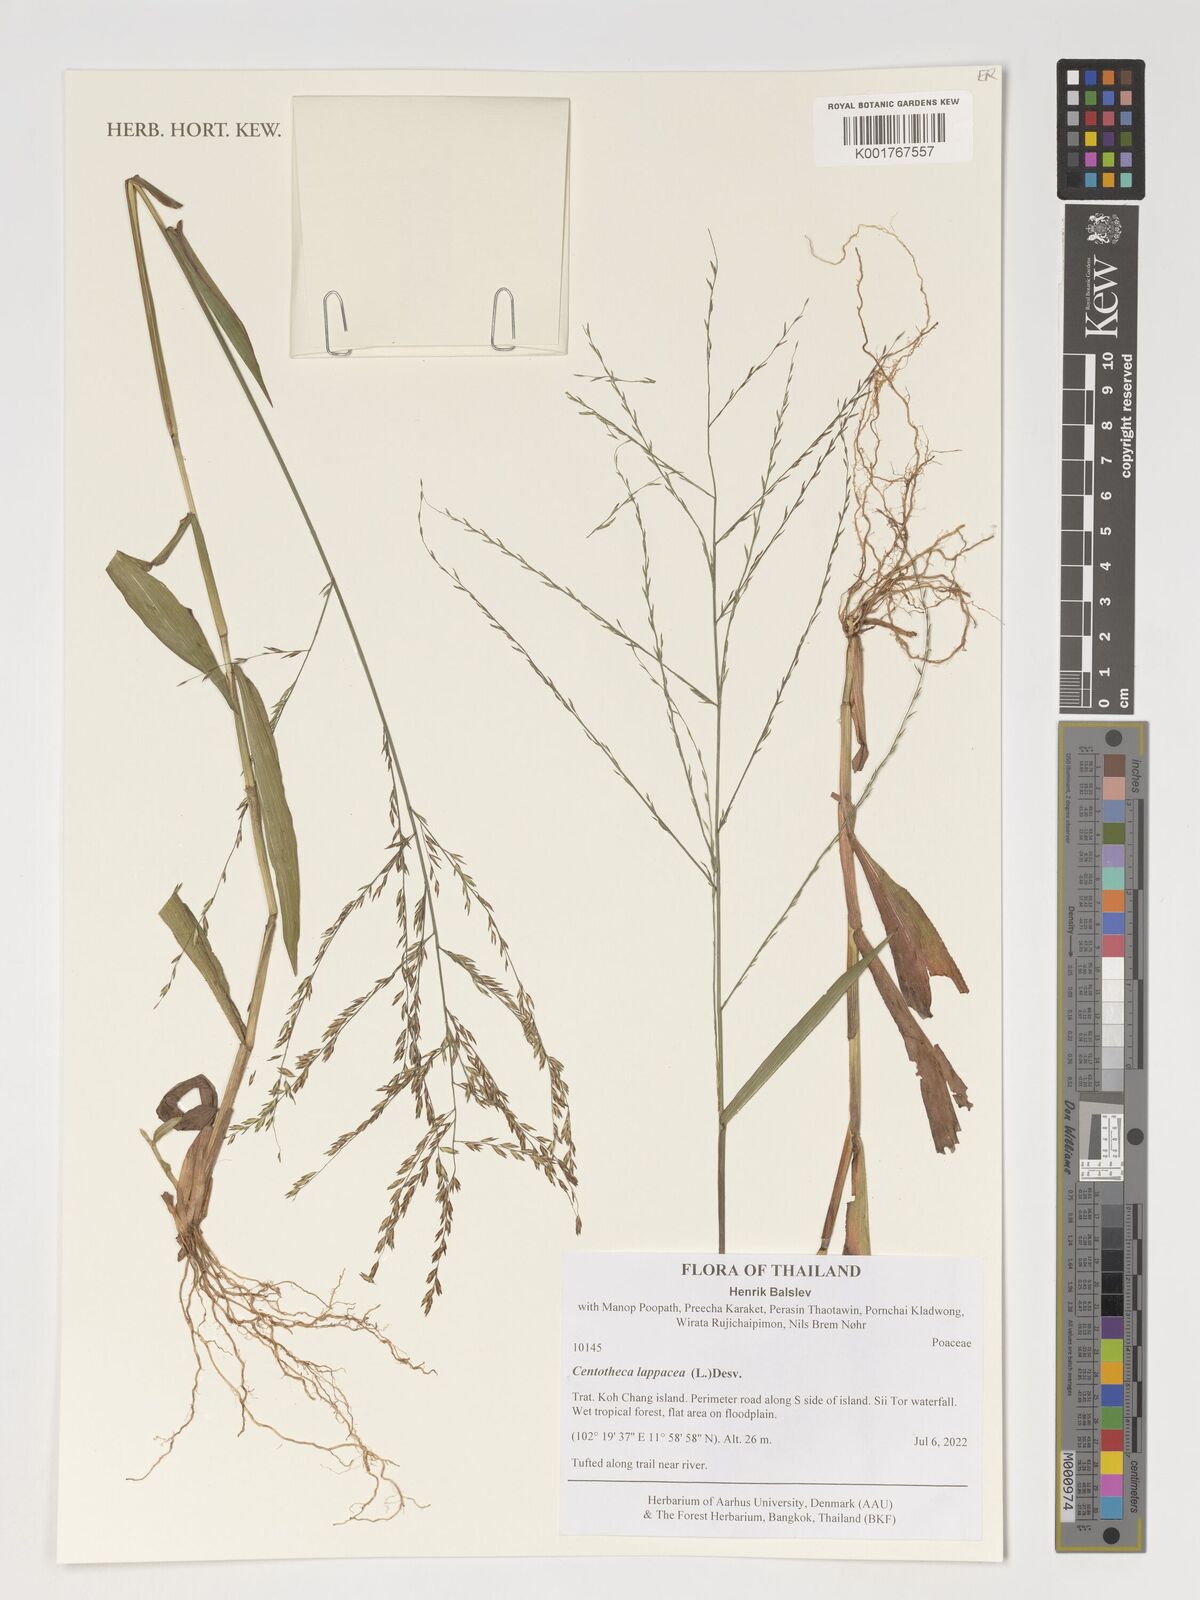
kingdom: Plantae
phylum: Tracheophyta
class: Liliopsida
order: Poales
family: Poaceae
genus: Centotheca
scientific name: Centotheca lappacea
